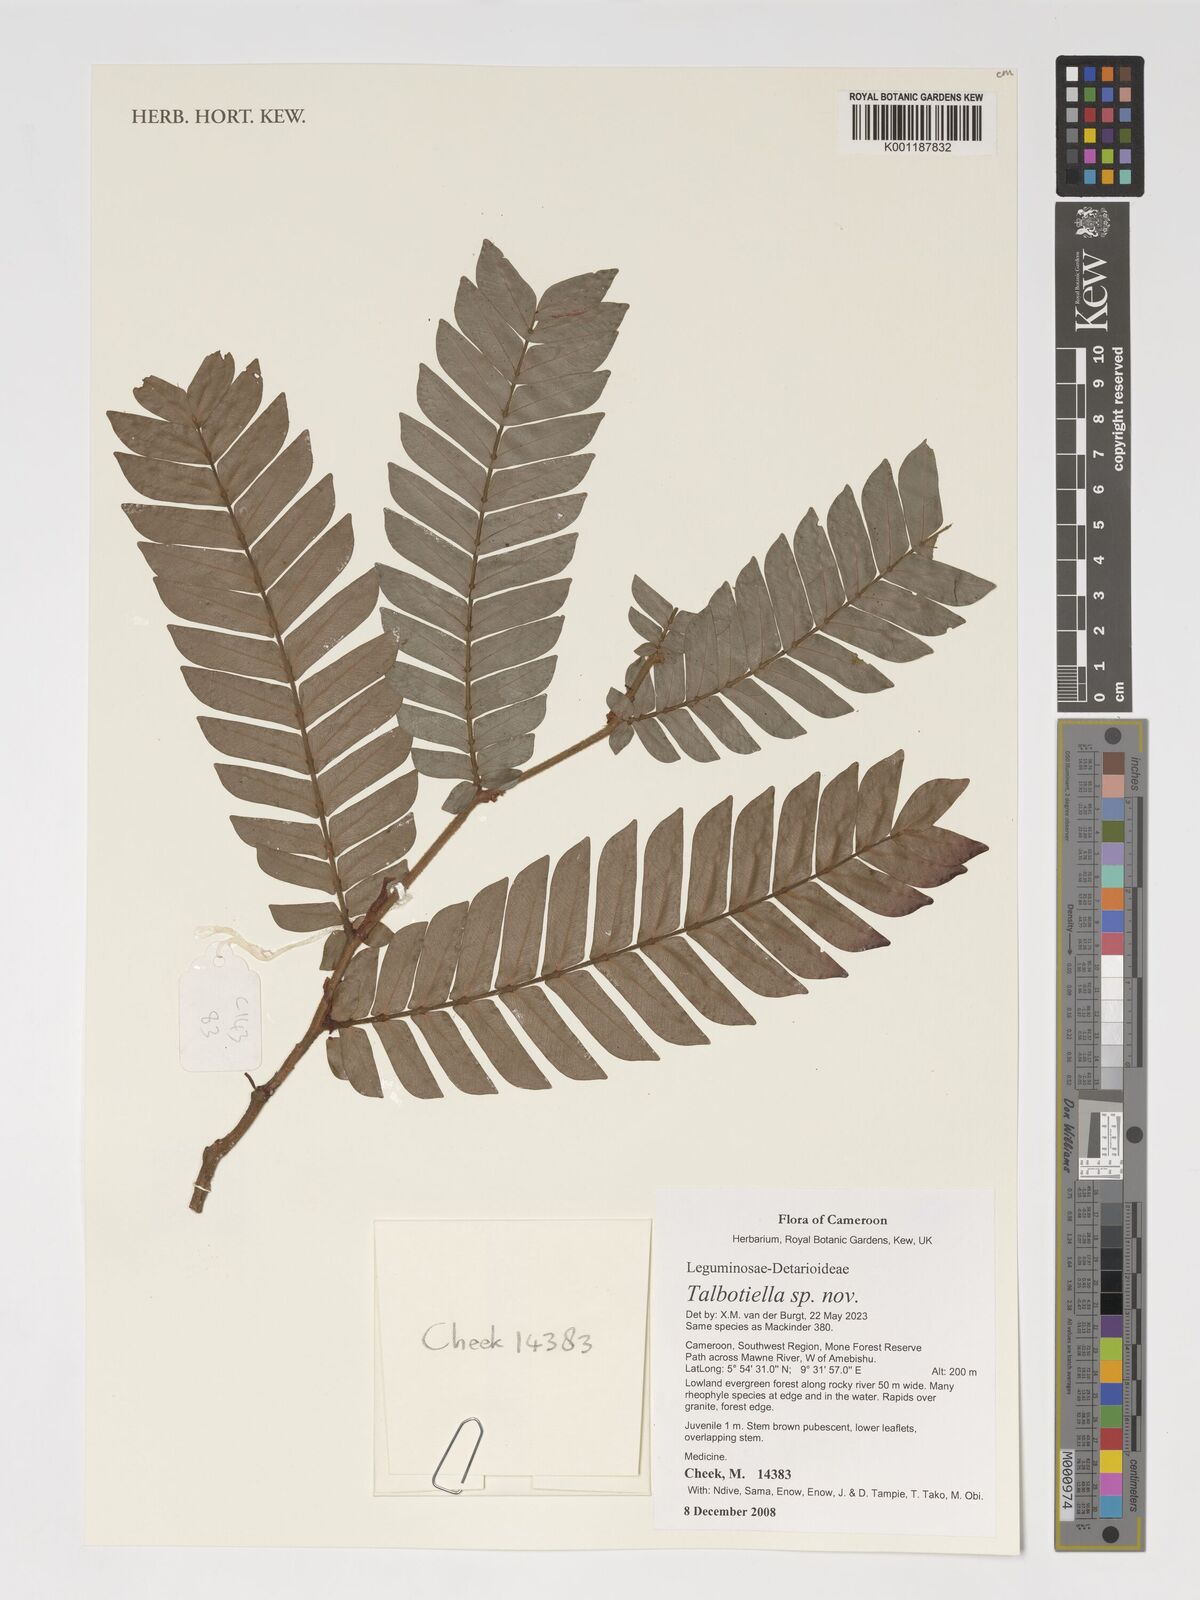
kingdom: Plantae
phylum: Tracheophyta
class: Magnoliopsida
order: Fabales
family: Fabaceae
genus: Talbotiella
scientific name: Talbotiella
